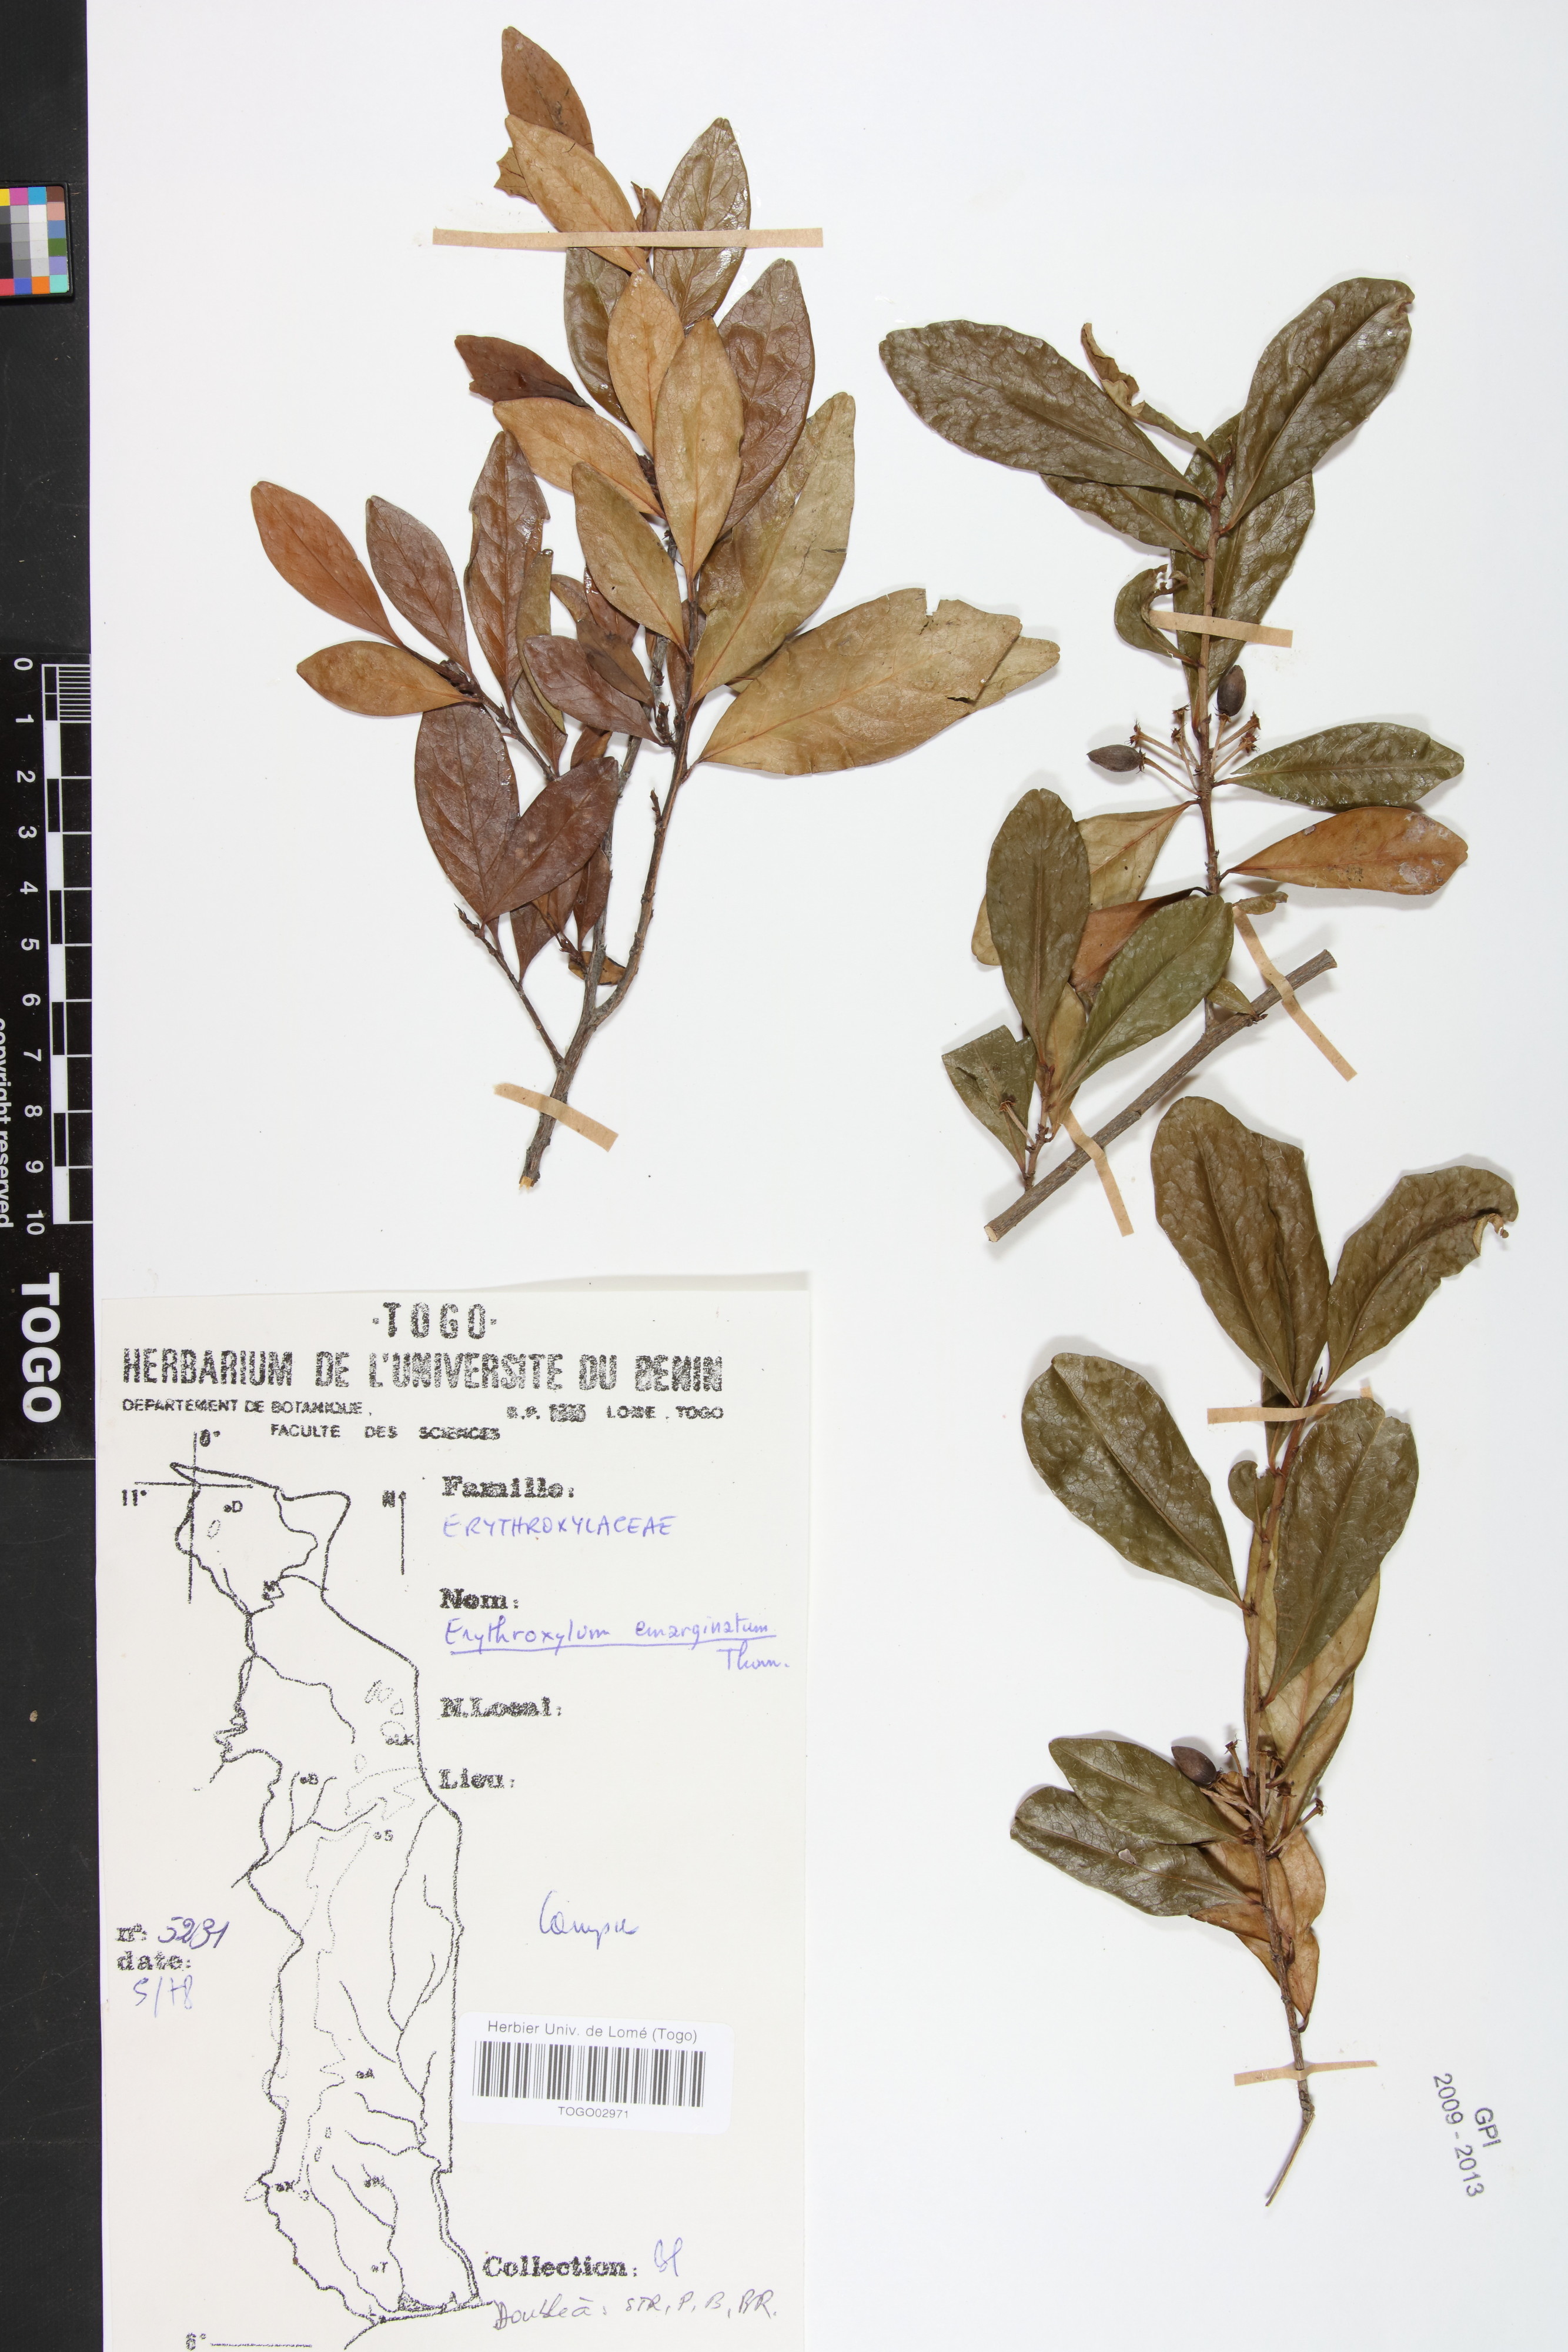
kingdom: Plantae
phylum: Tracheophyta
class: Magnoliopsida
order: Malpighiales
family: Erythroxylaceae
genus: Erythroxylum
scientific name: Erythroxylum emarginatum
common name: African coca-tree
